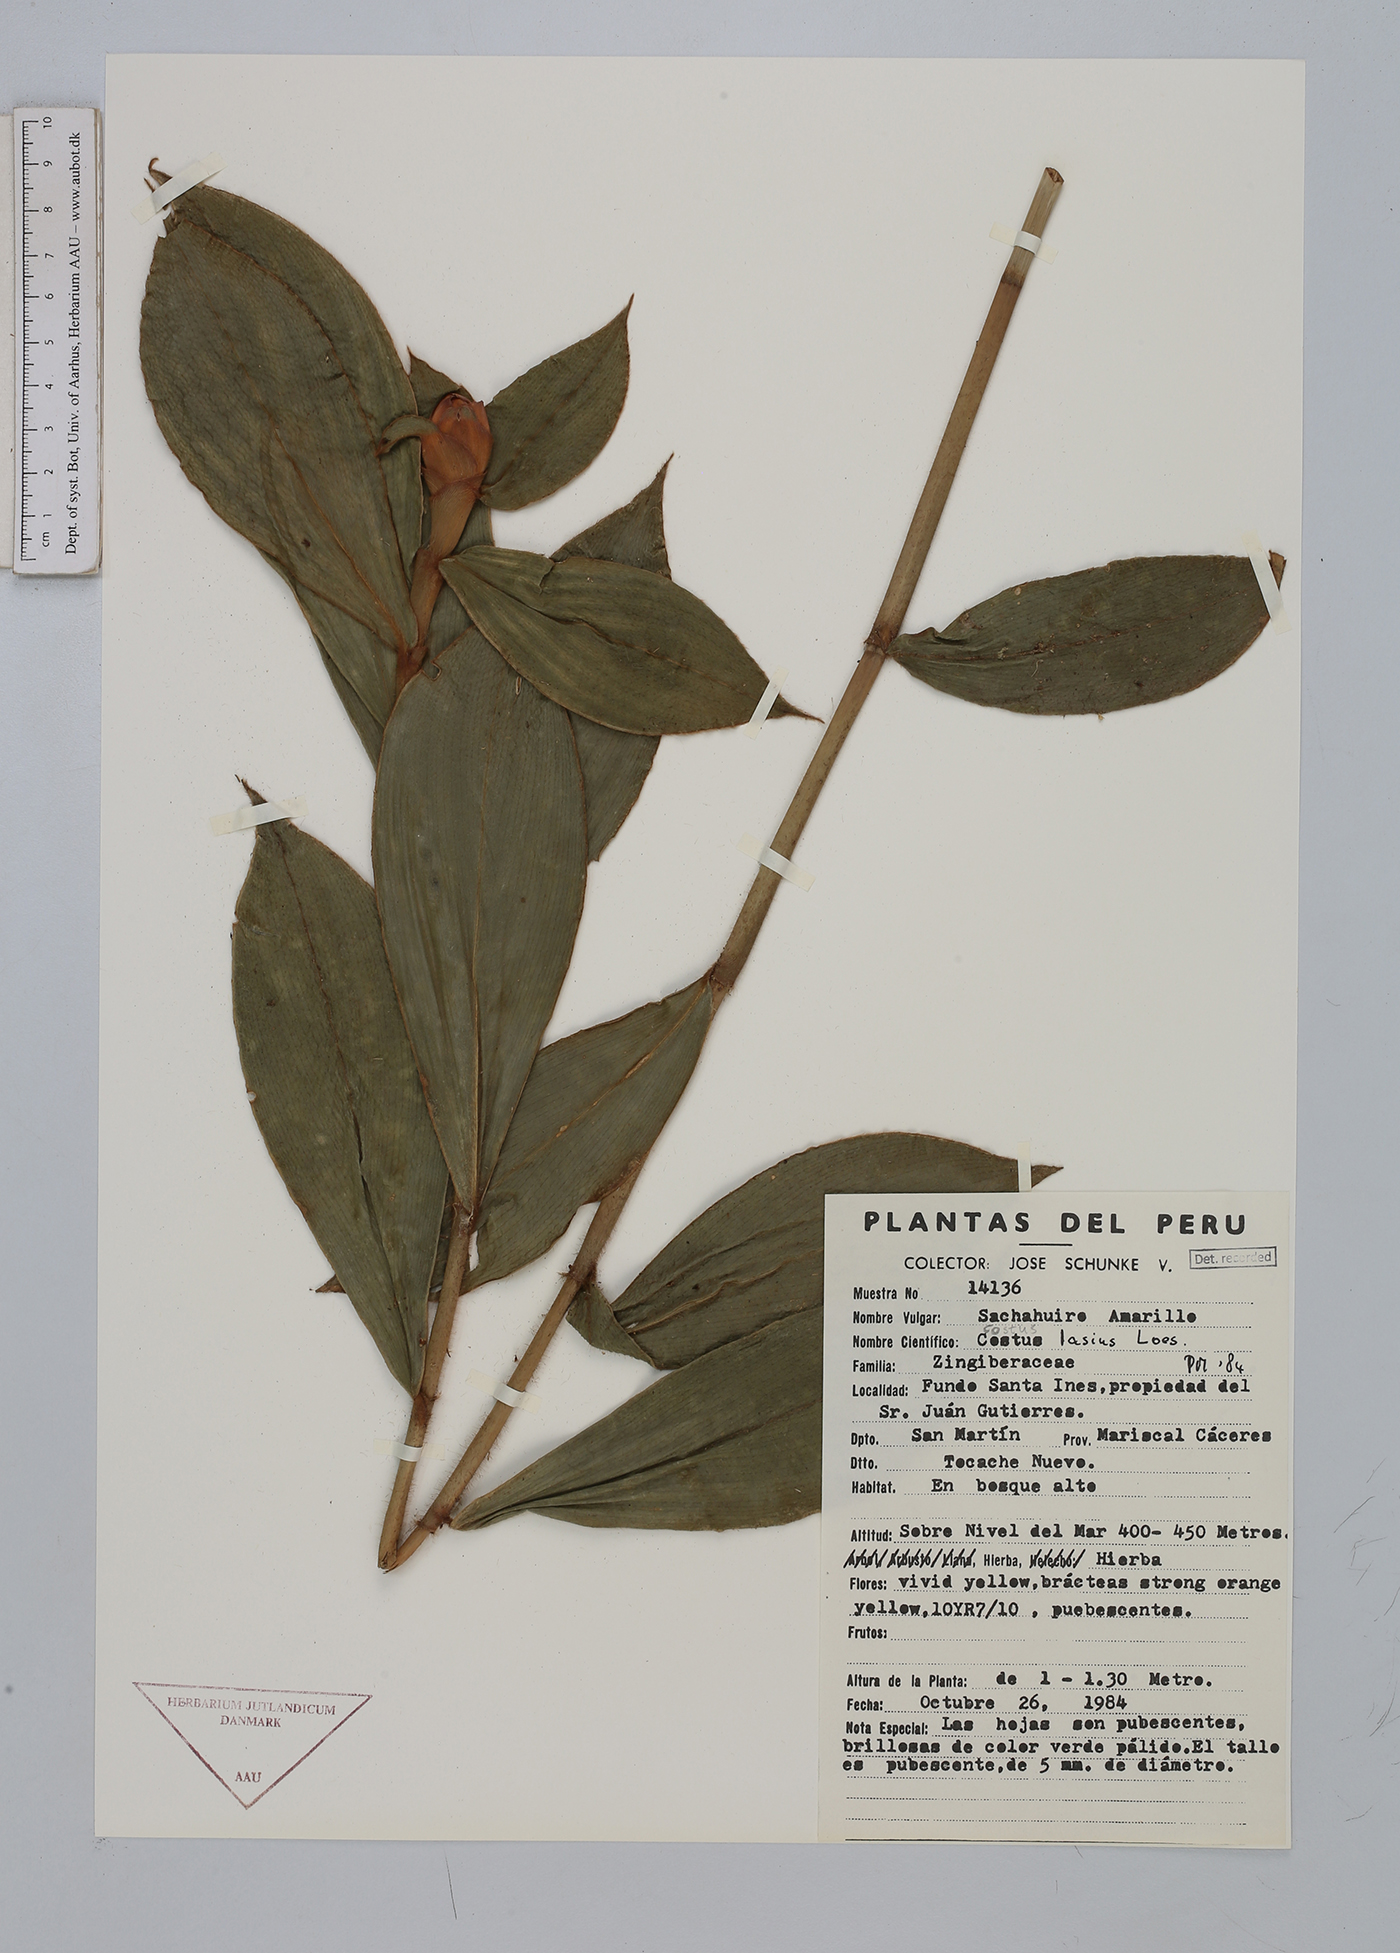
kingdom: Plantae
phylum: Tracheophyta
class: Liliopsida
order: Zingiberales
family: Costaceae
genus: Costus
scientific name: Costus lasius
